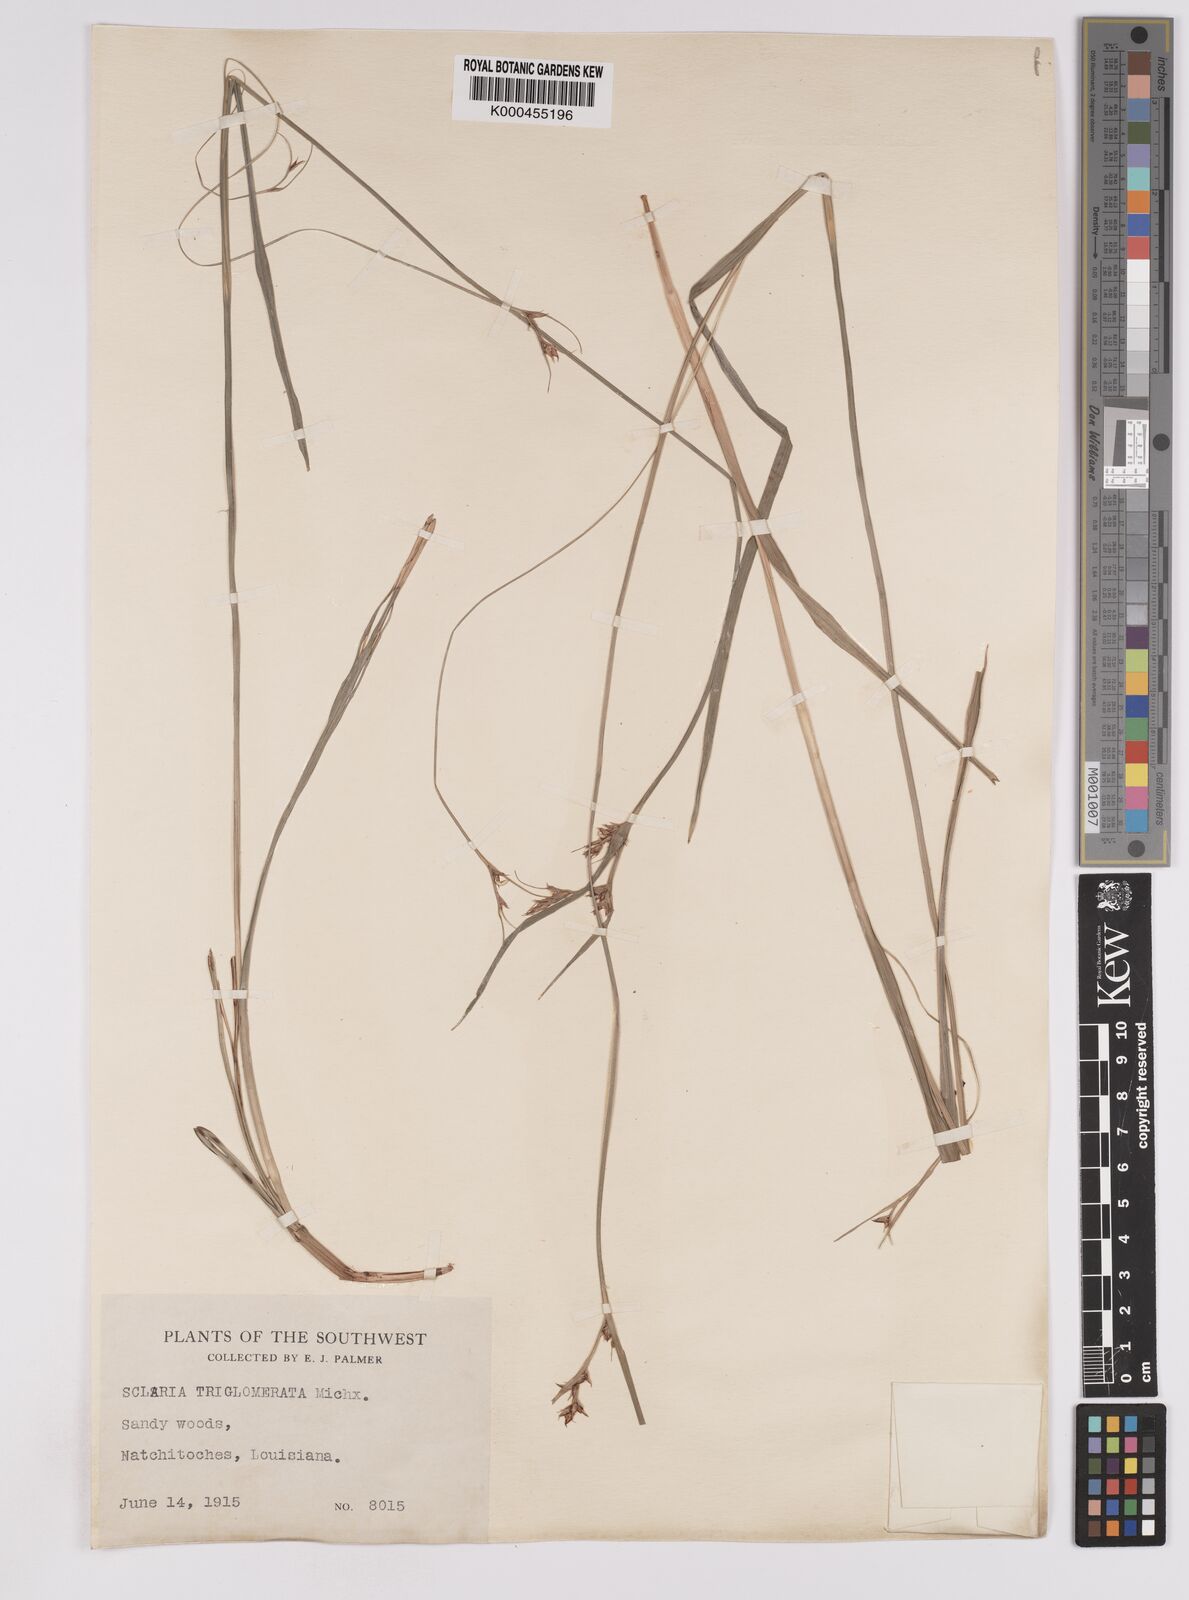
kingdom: Plantae
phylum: Tracheophyta
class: Liliopsida
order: Poales
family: Cyperaceae
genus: Scleria
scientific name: Scleria triglomerata
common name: Whip nutrush
